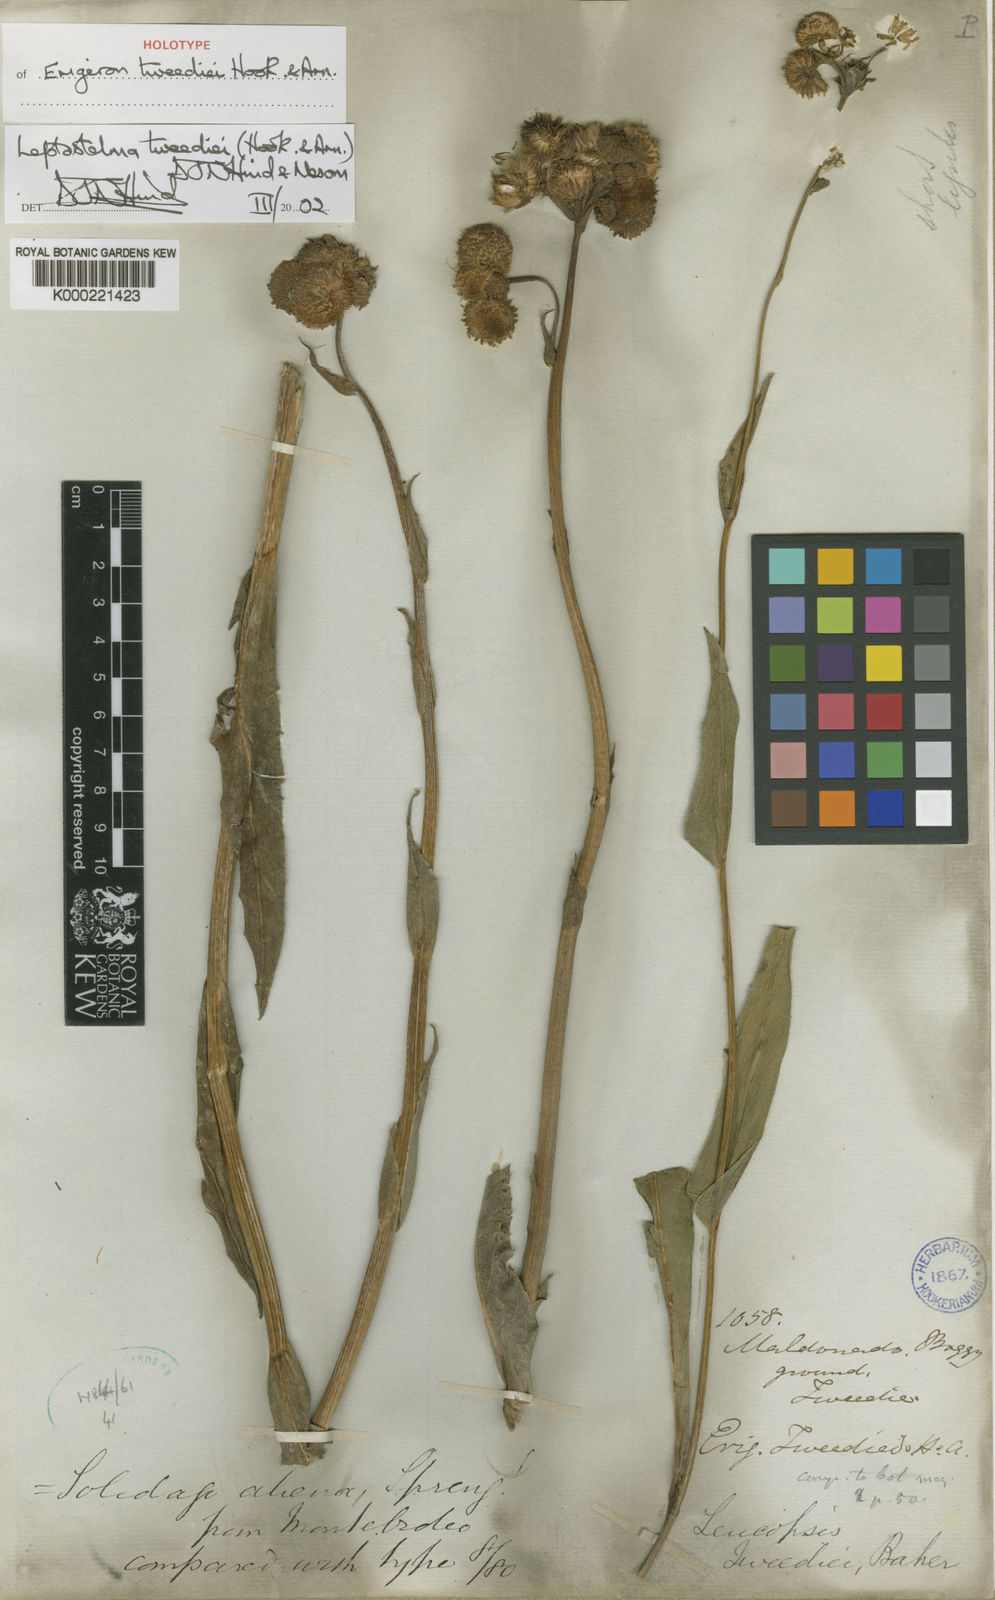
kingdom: Plantae
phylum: Tracheophyta
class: Magnoliopsida
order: Asterales
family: Asteraceae
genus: Leptostelma
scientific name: Leptostelma tweediei
